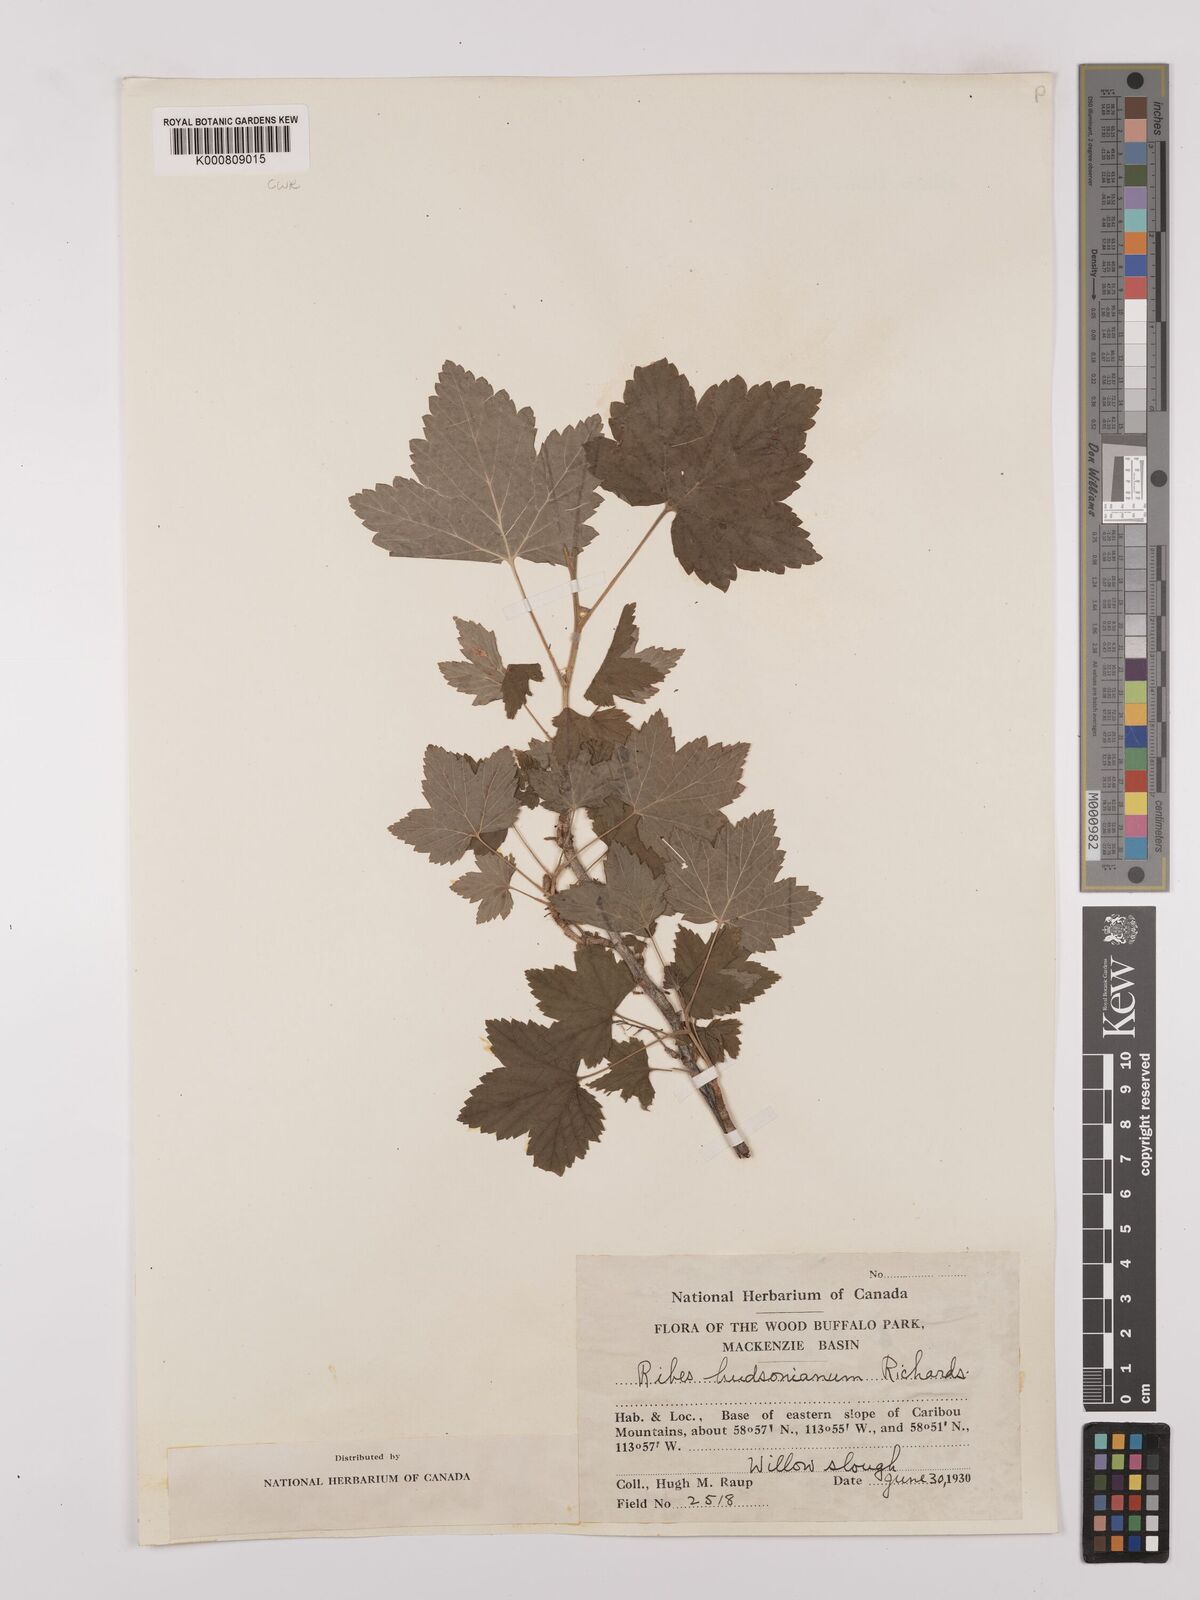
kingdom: Plantae
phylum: Tracheophyta
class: Magnoliopsida
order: Saxifragales
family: Grossulariaceae
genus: Ribes
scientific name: Ribes hudsonianum
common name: Northern black currant
